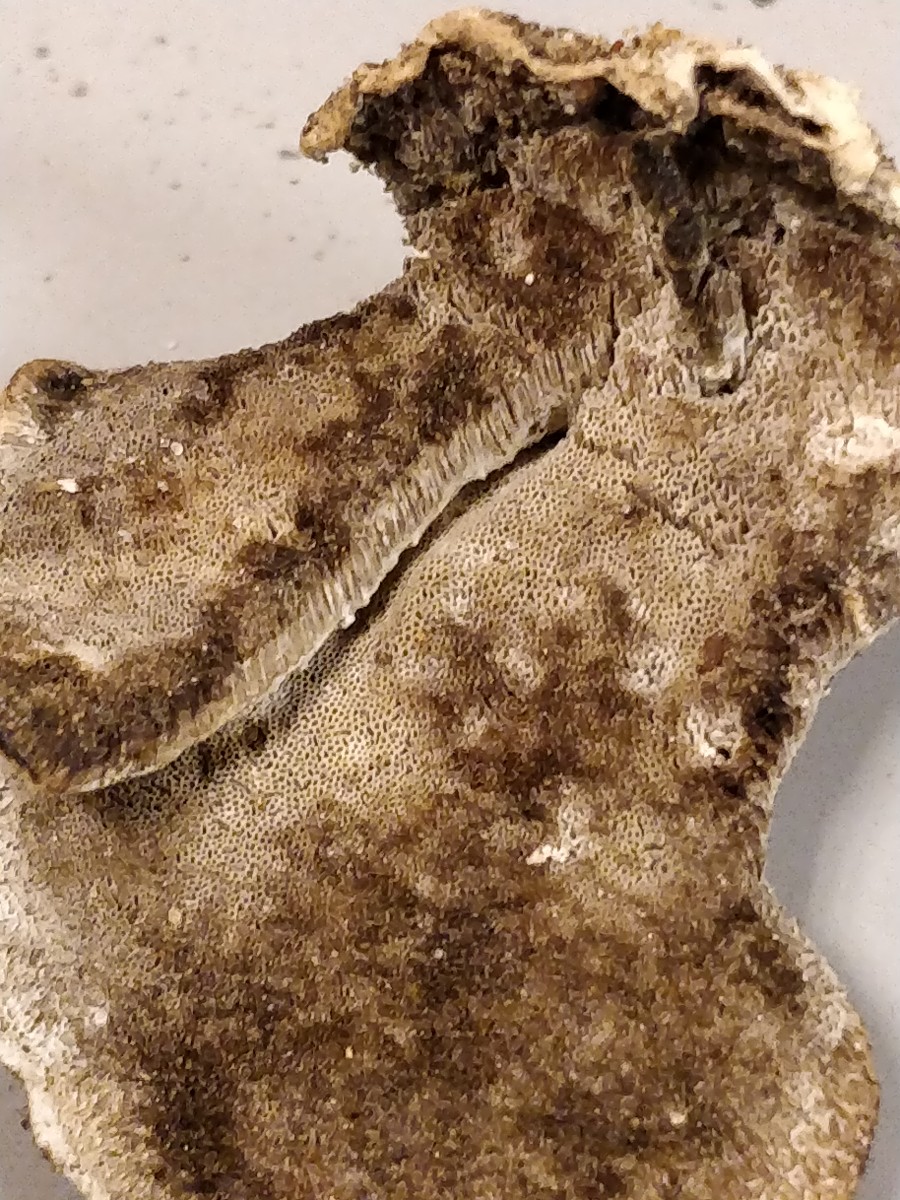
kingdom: Fungi
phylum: Basidiomycota
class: Agaricomycetes
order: Polyporales
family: Phanerochaetaceae
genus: Bjerkandera
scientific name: Bjerkandera adusta
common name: sveden sodporesvamp
